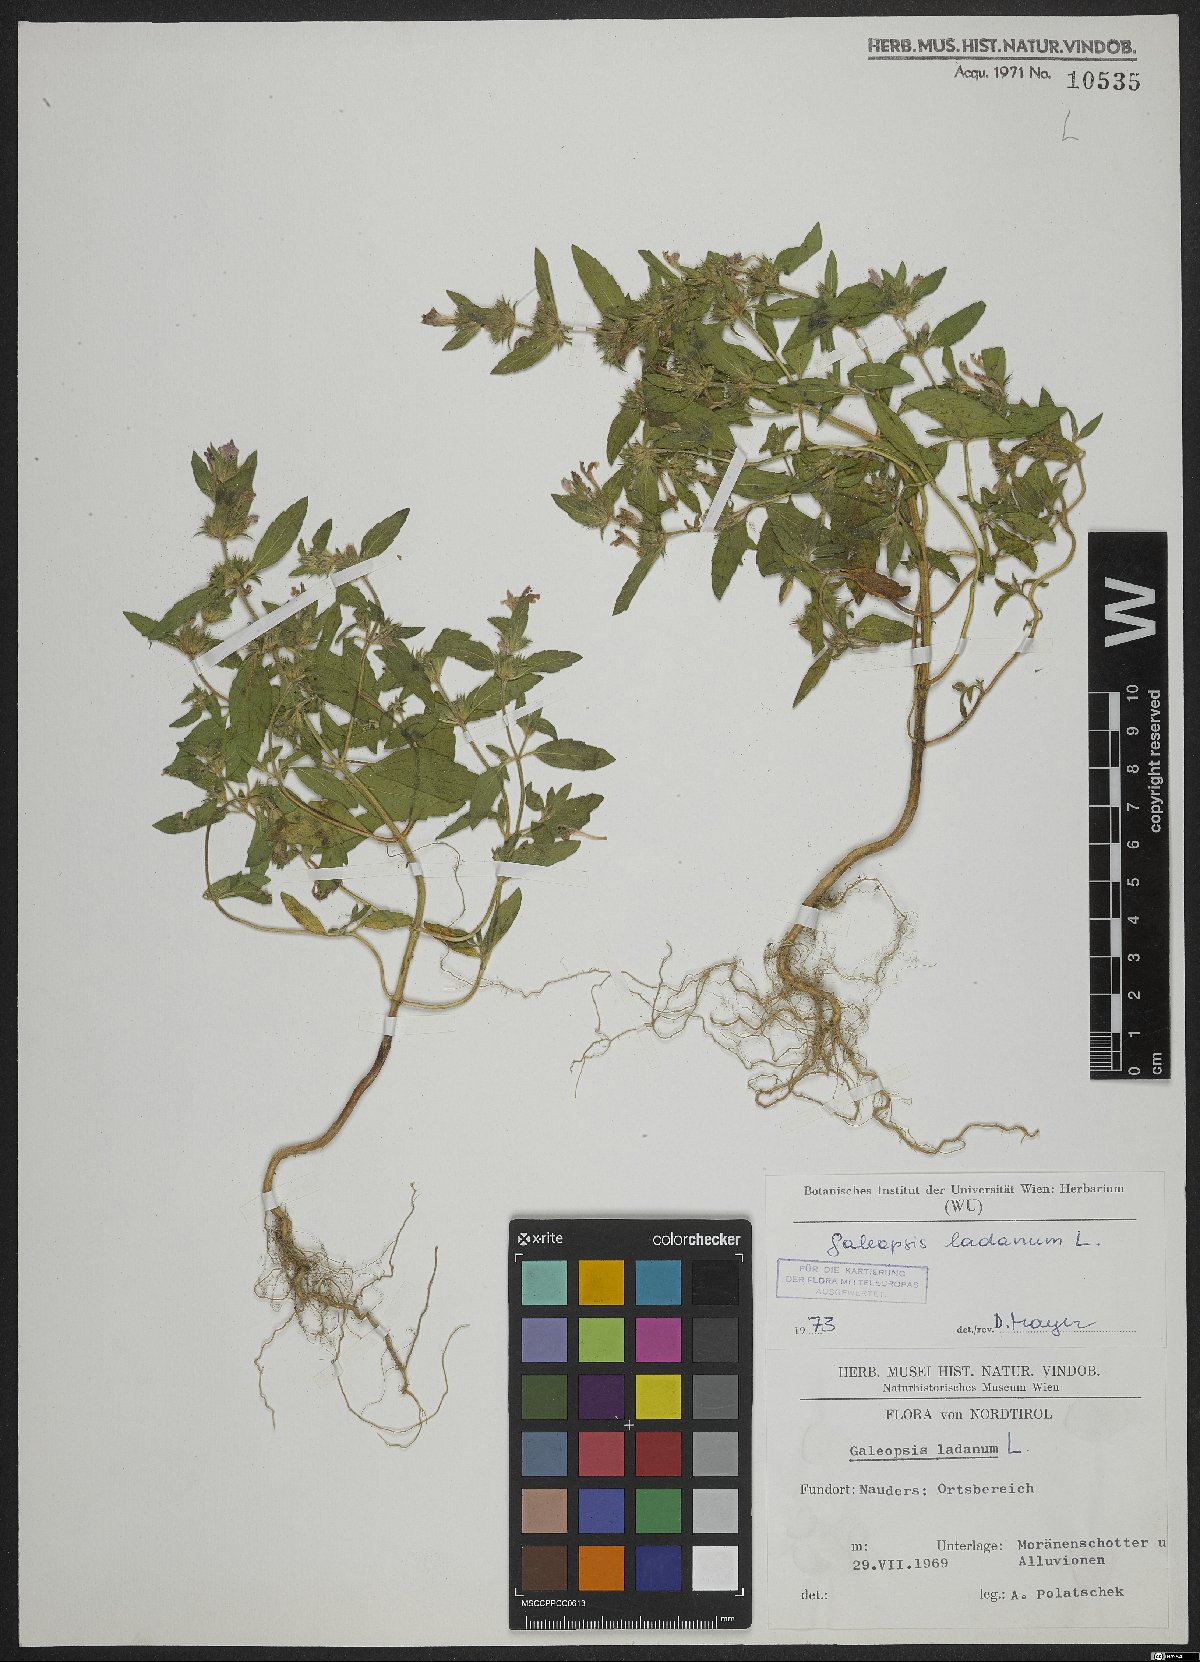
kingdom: Plantae
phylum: Tracheophyta
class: Magnoliopsida
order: Lamiales
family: Lamiaceae
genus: Galeopsis
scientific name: Galeopsis ladanum
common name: Broad-leaved hemp-nettle
